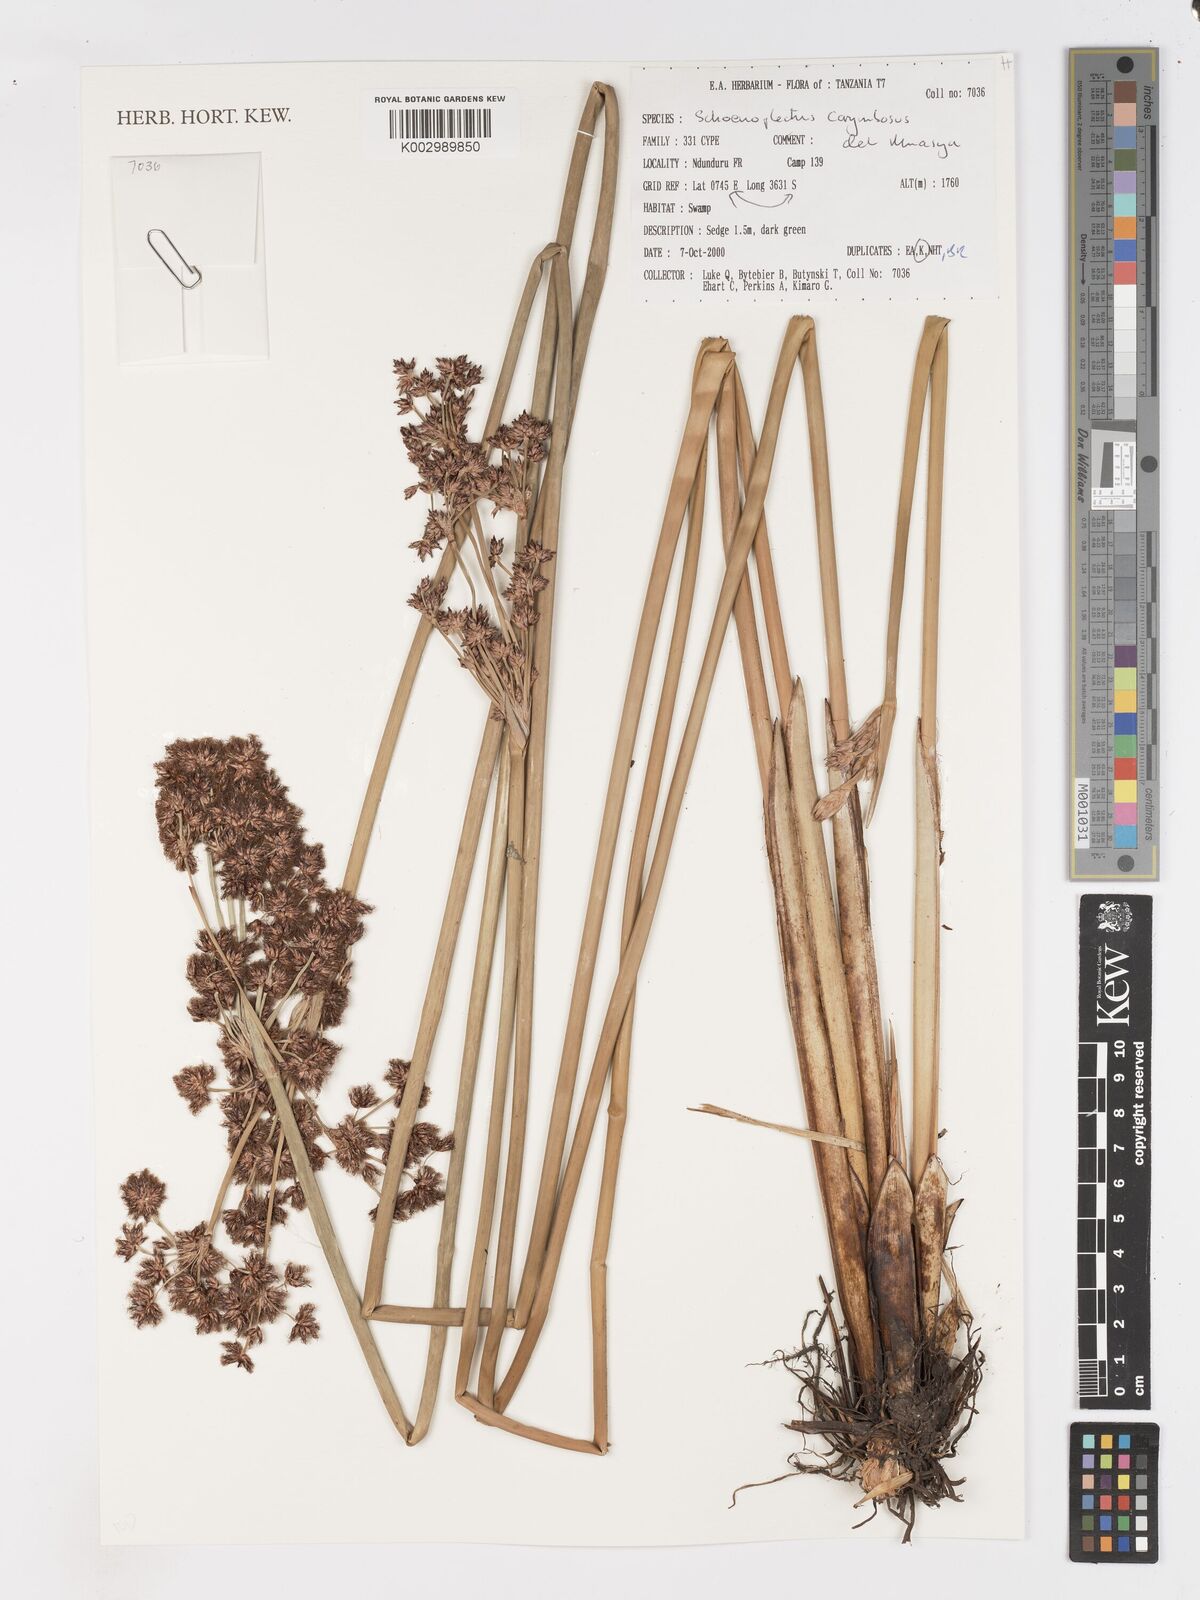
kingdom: Plantae
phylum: Tracheophyta
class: Liliopsida
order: Poales
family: Cyperaceae
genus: Schoenoplectiella
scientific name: Schoenoplectiella corymbosa
